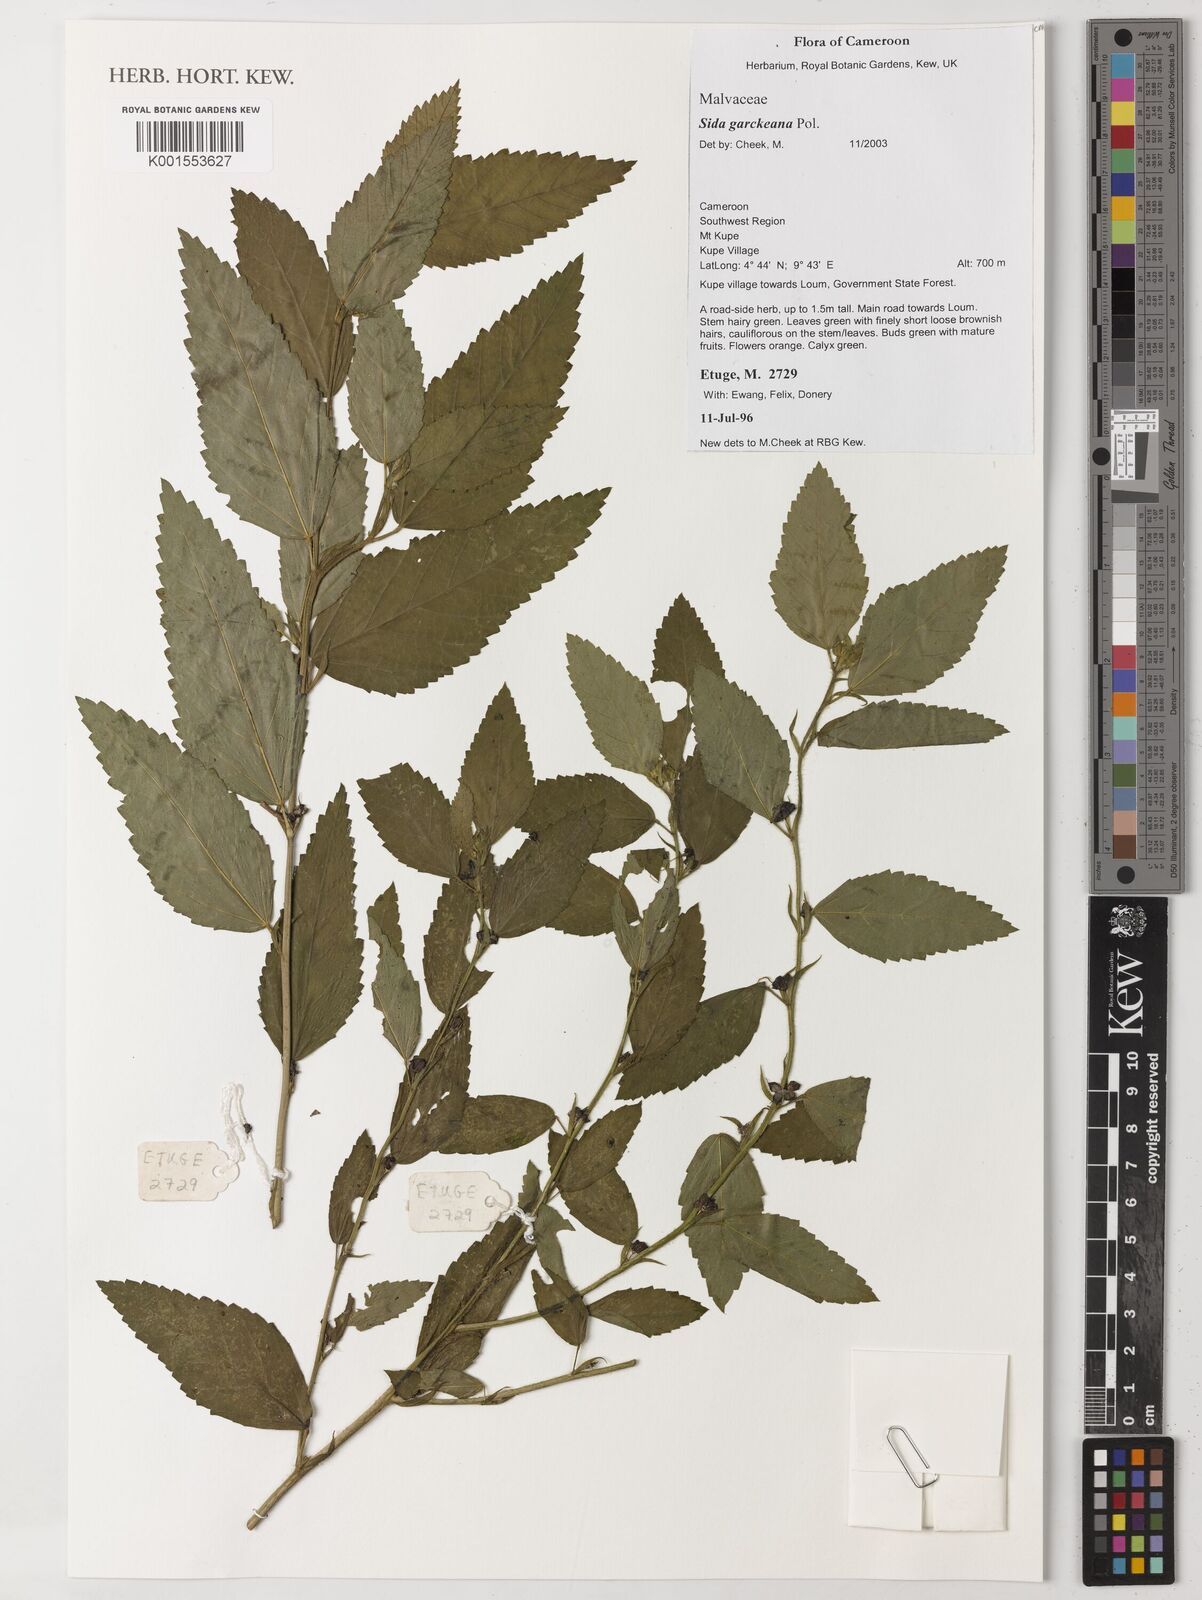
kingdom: Plantae
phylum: Tracheophyta
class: Magnoliopsida
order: Malvales
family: Malvaceae
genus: Sida
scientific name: Sida acuta
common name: Common wireweed
